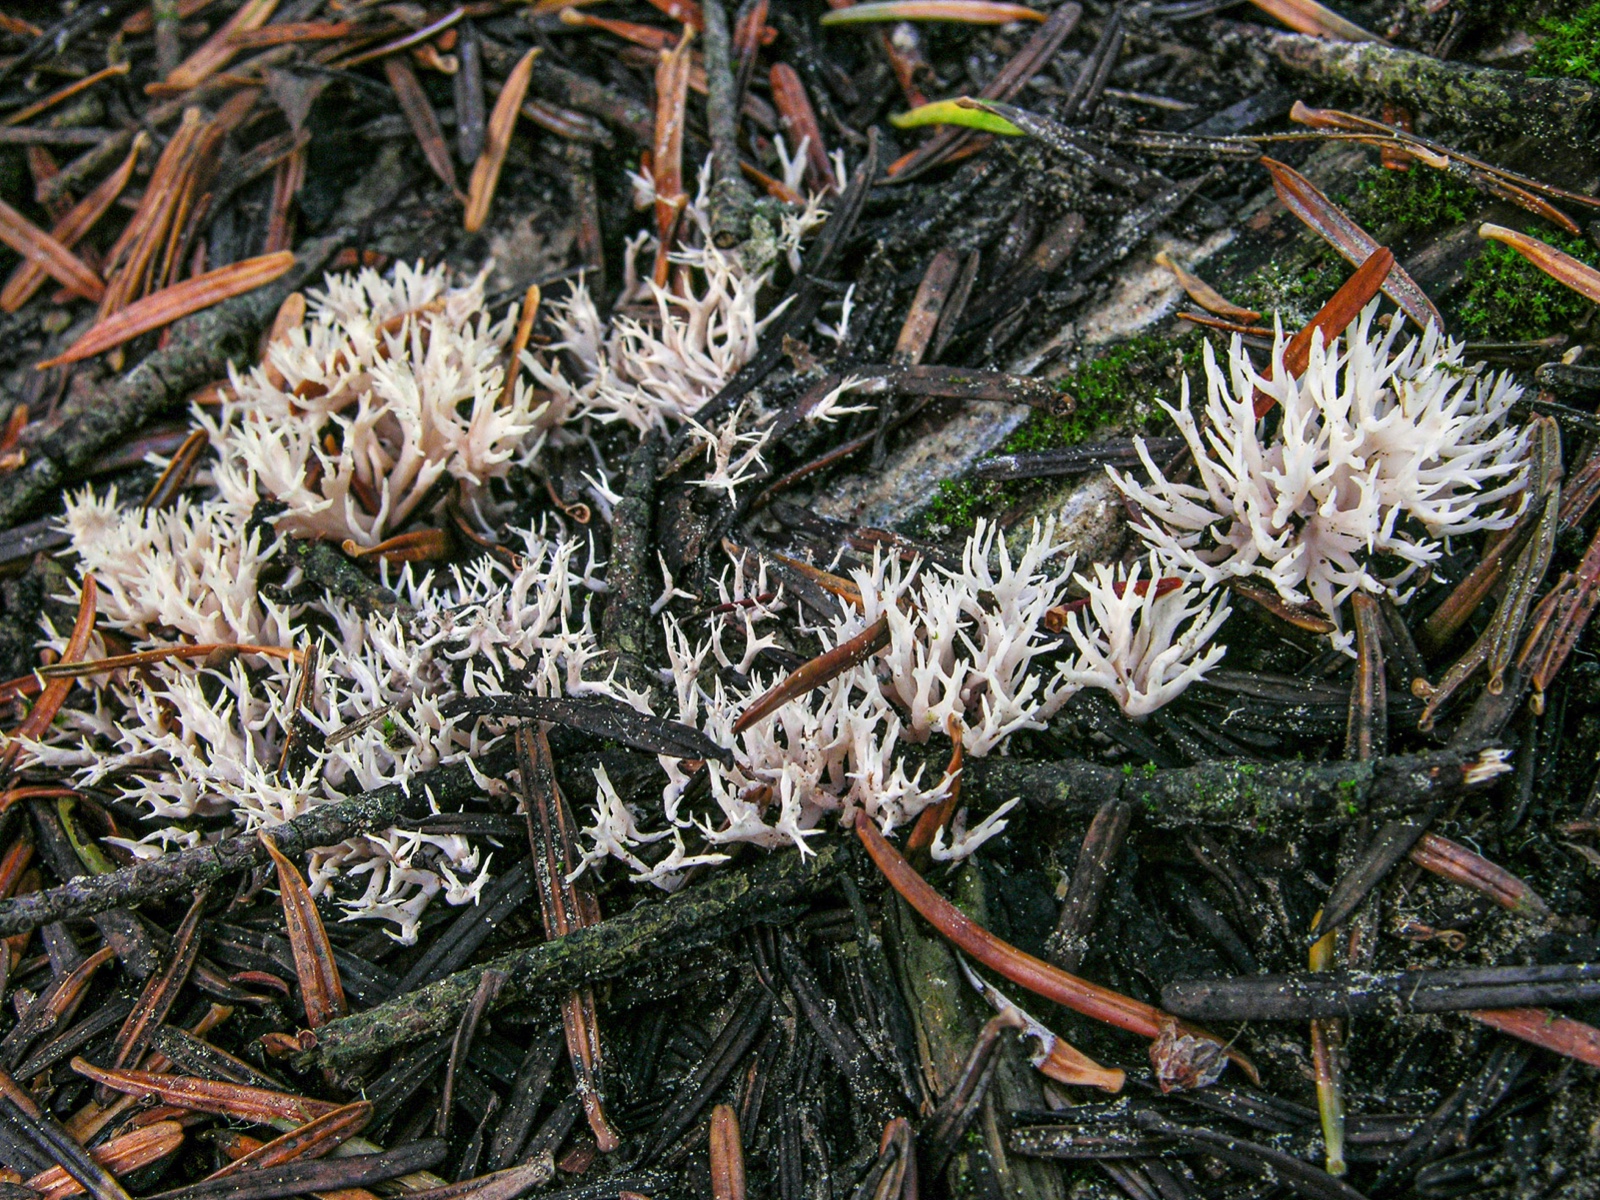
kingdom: Fungi
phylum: Basidiomycota
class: Agaricomycetes
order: Gomphales
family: Lentariaceae
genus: Lentaria
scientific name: Lentaria byssiseda
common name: kødfarvet grenkølle
